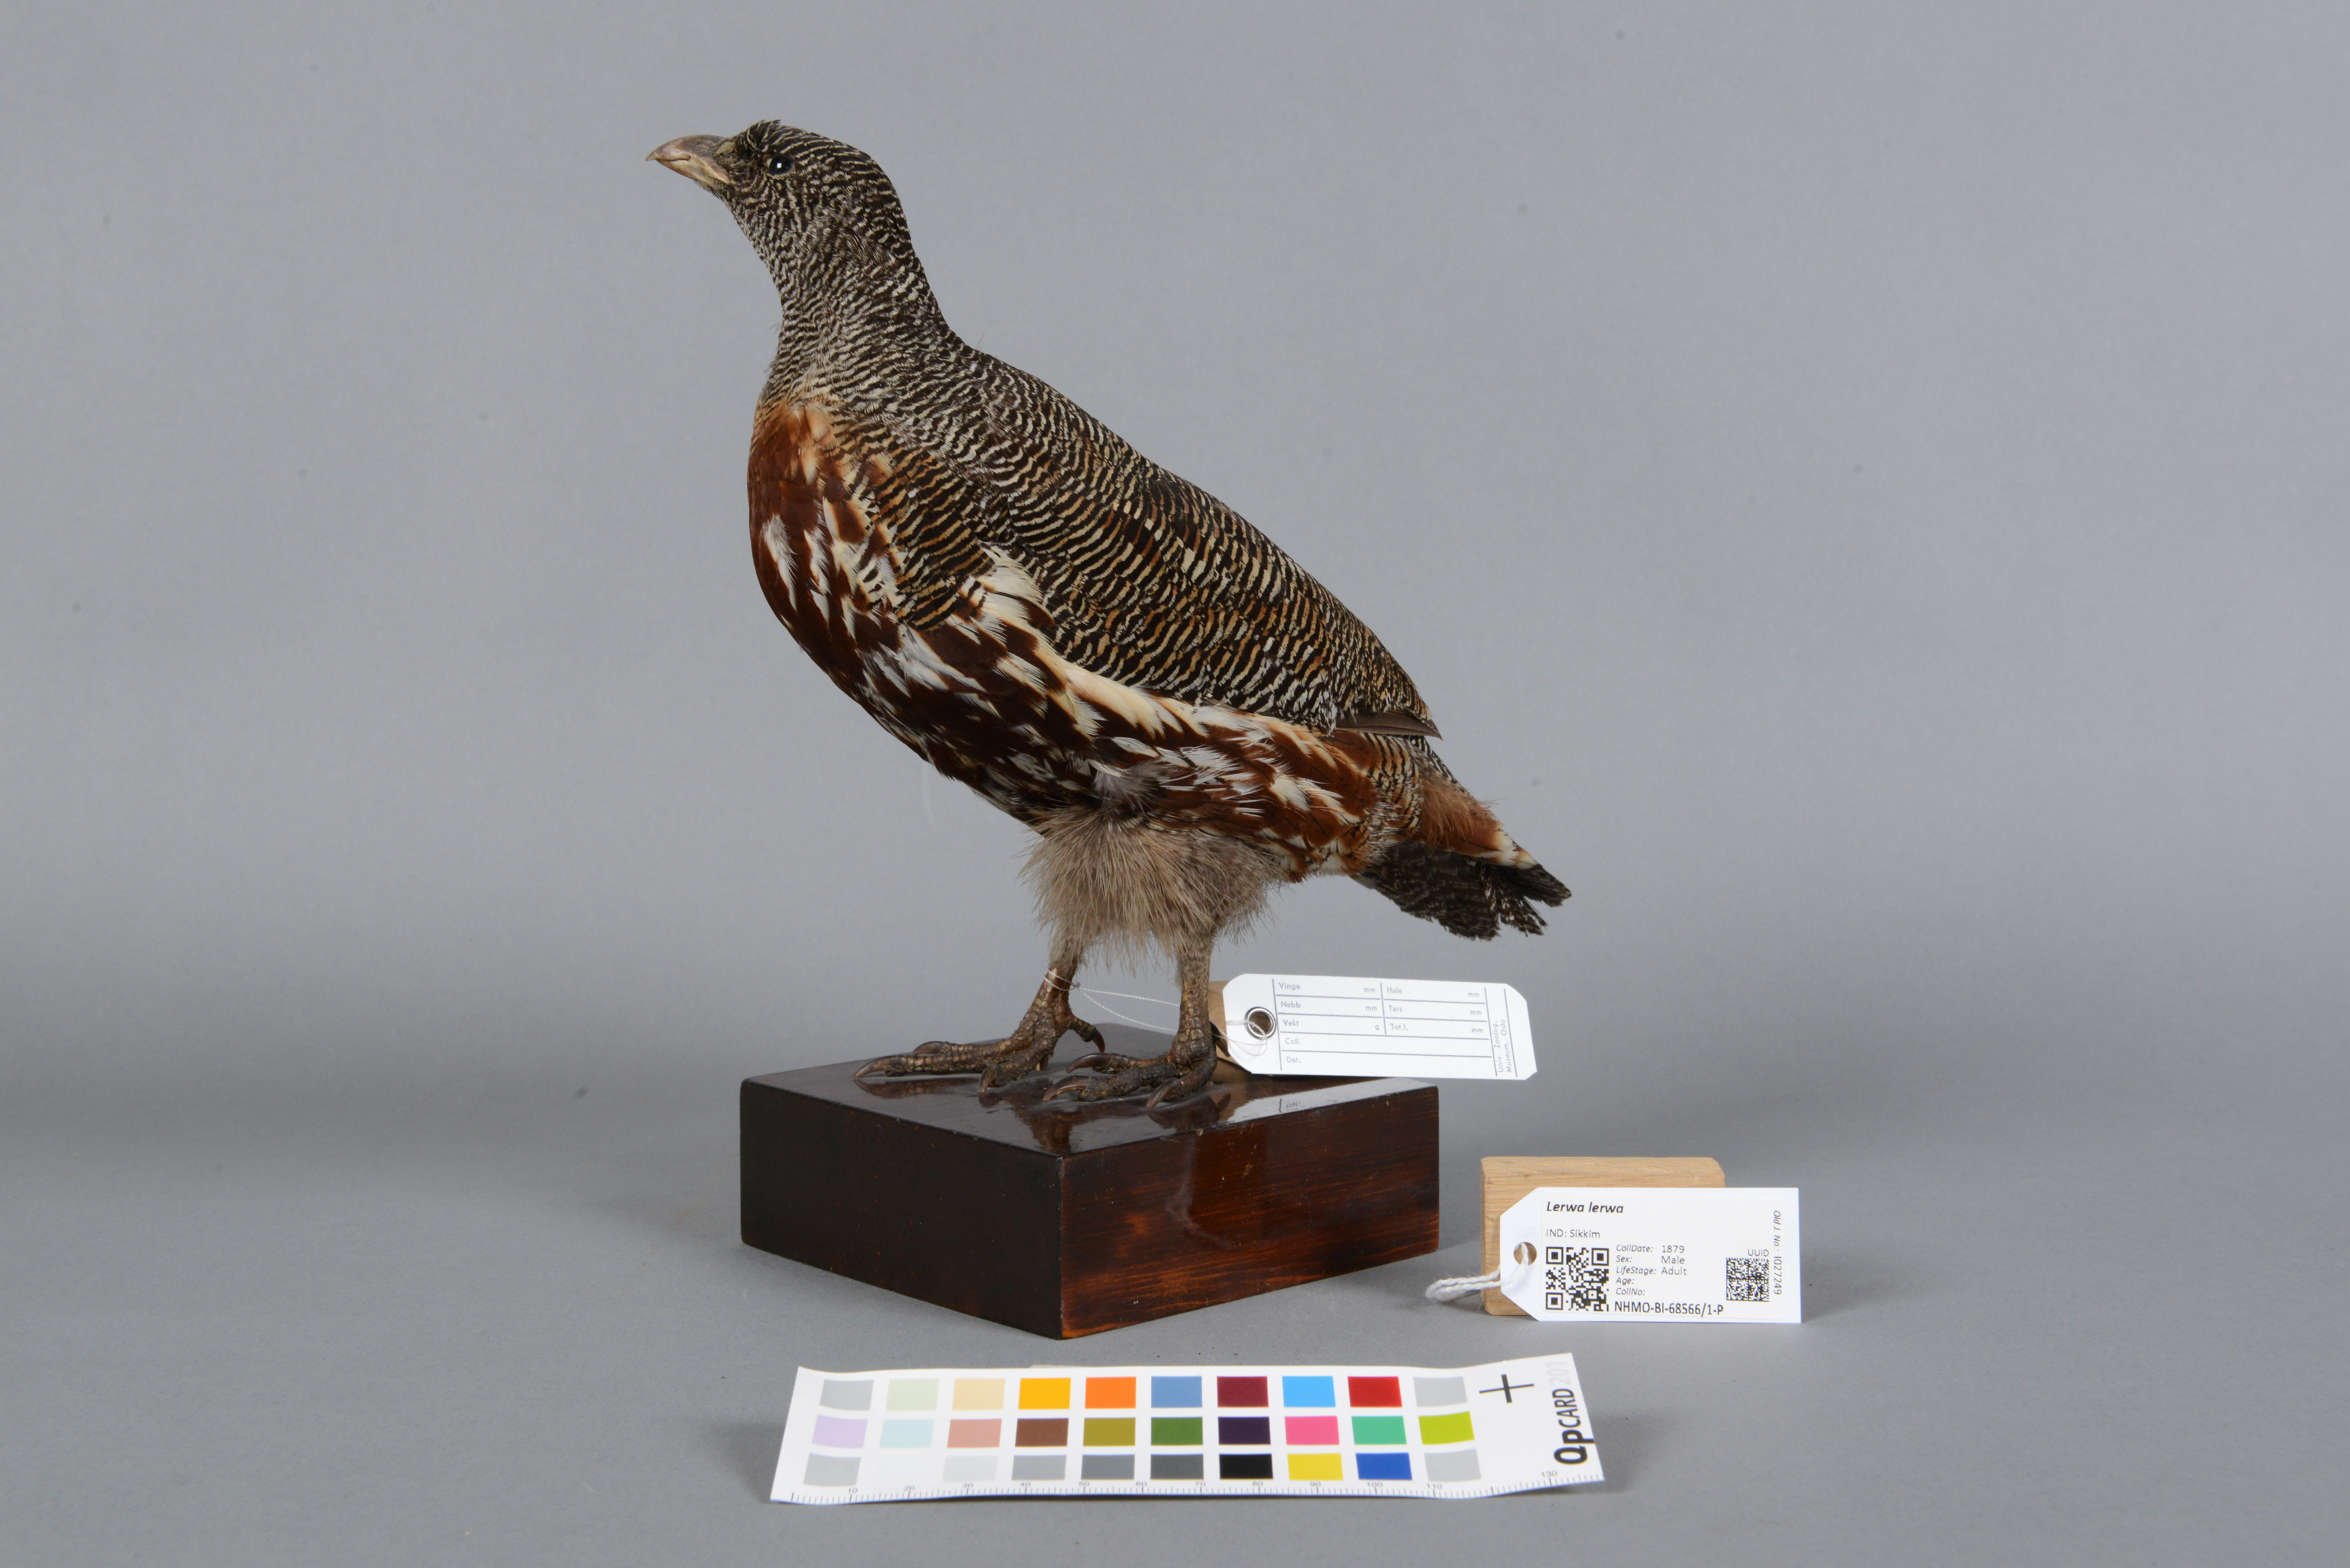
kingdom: Animalia
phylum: Chordata
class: Aves
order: Galliformes
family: Phasianidae
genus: Lerwa
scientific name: Lerwa lerwa
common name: Snow partridge
